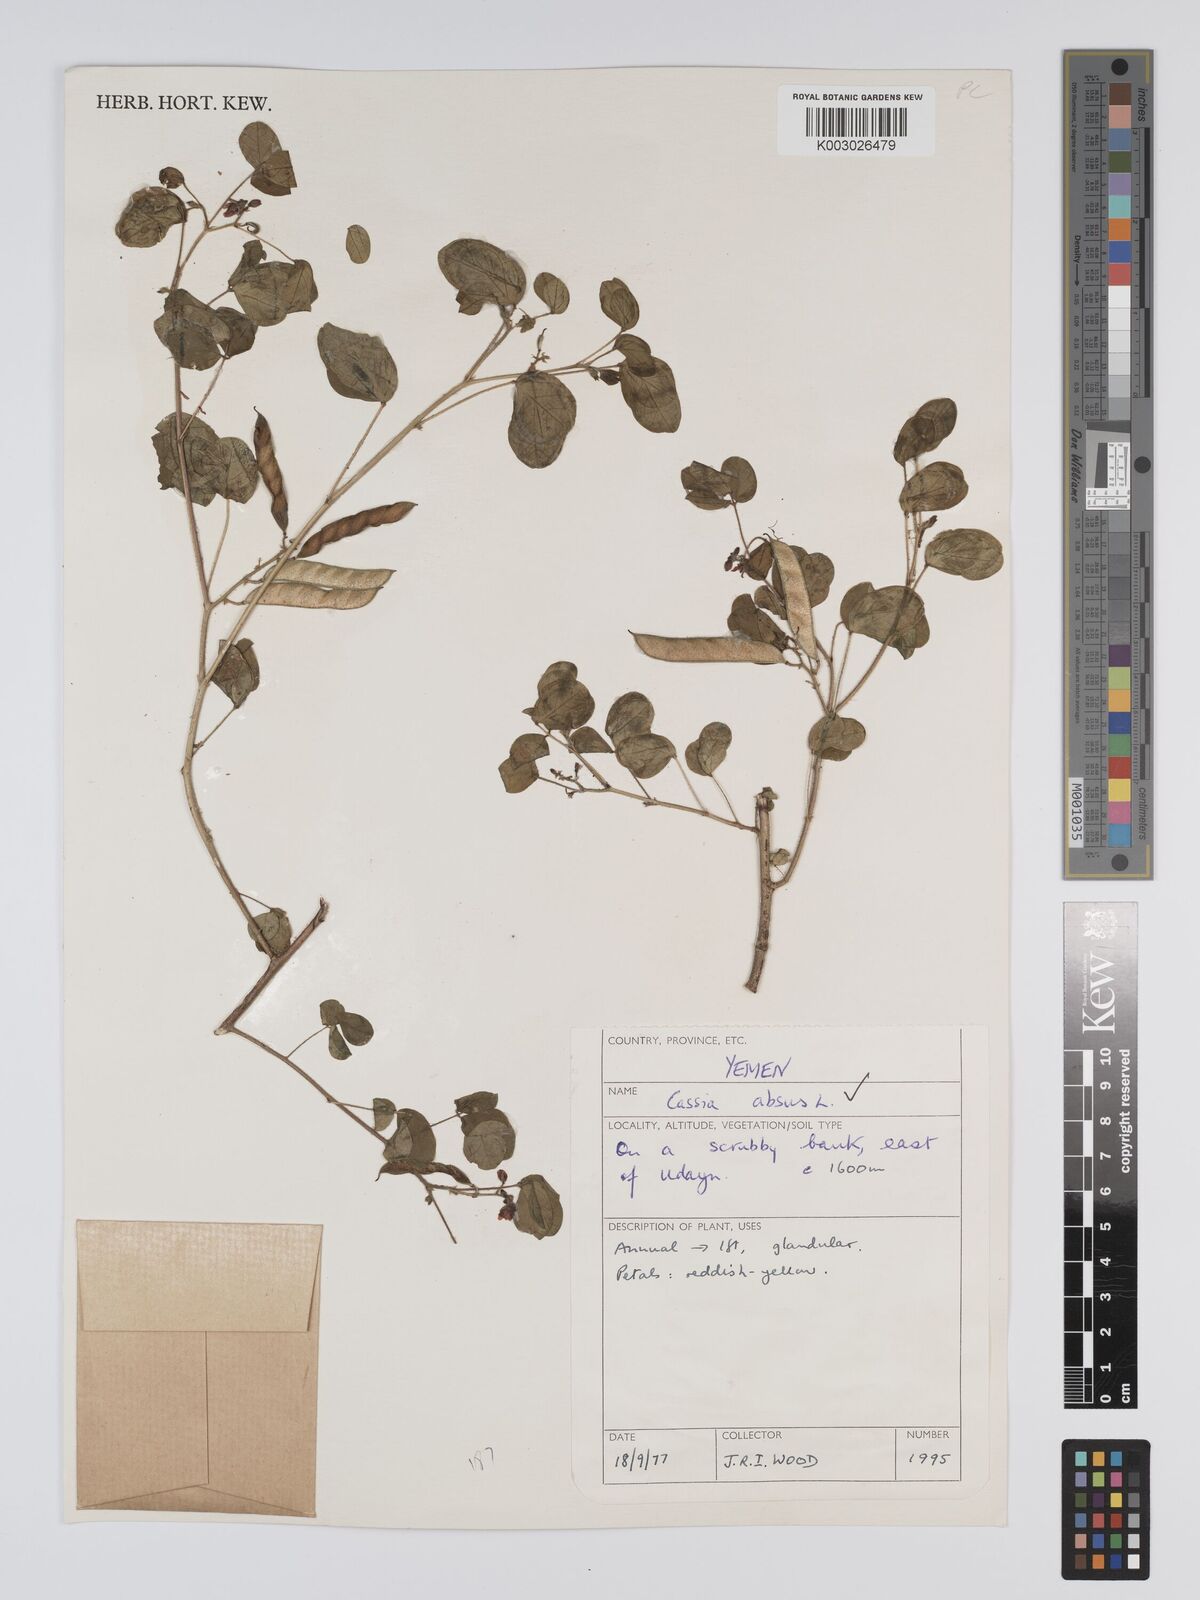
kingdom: Plantae
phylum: Tracheophyta
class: Magnoliopsida
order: Fabales
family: Fabaceae
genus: Chamaecrista
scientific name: Chamaecrista absus
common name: Tropical sensitive pea
